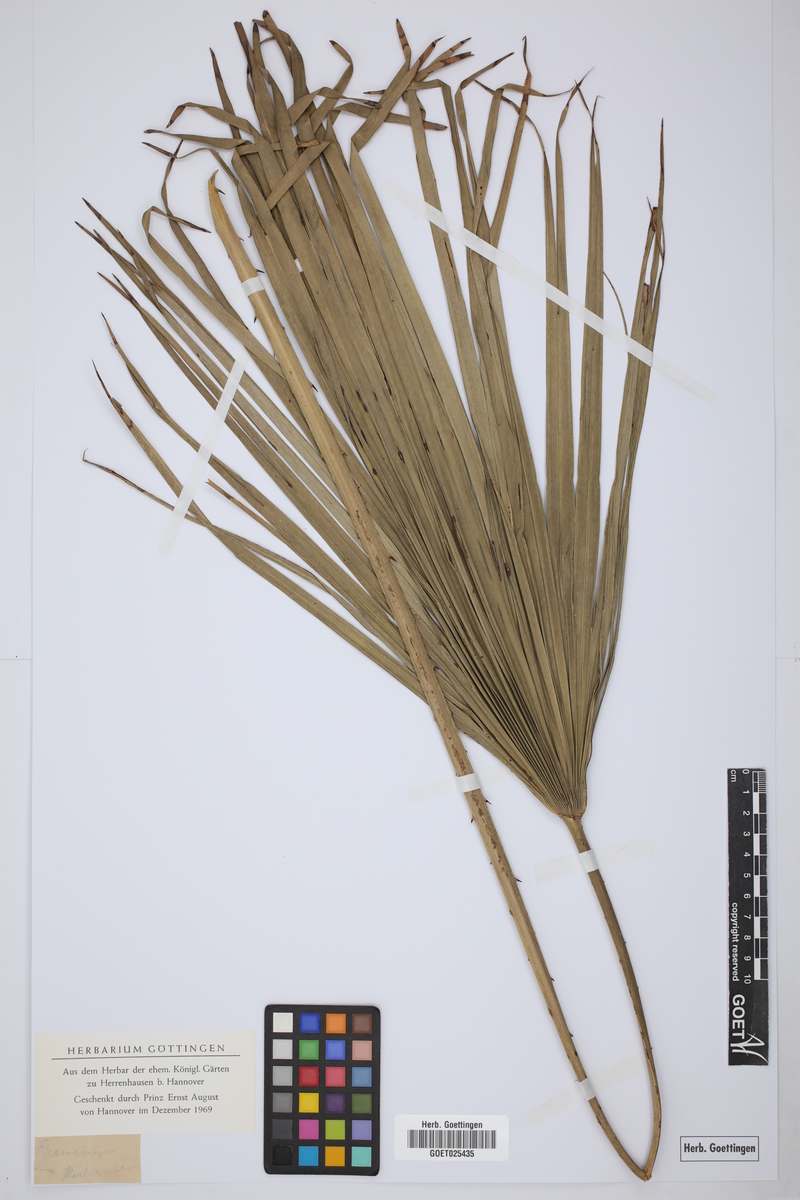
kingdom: Plantae
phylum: Tracheophyta
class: Liliopsida
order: Arecales
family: Arecaceae
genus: Chamaerops
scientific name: Chamaerops humilis
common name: Dwarf fan palm
